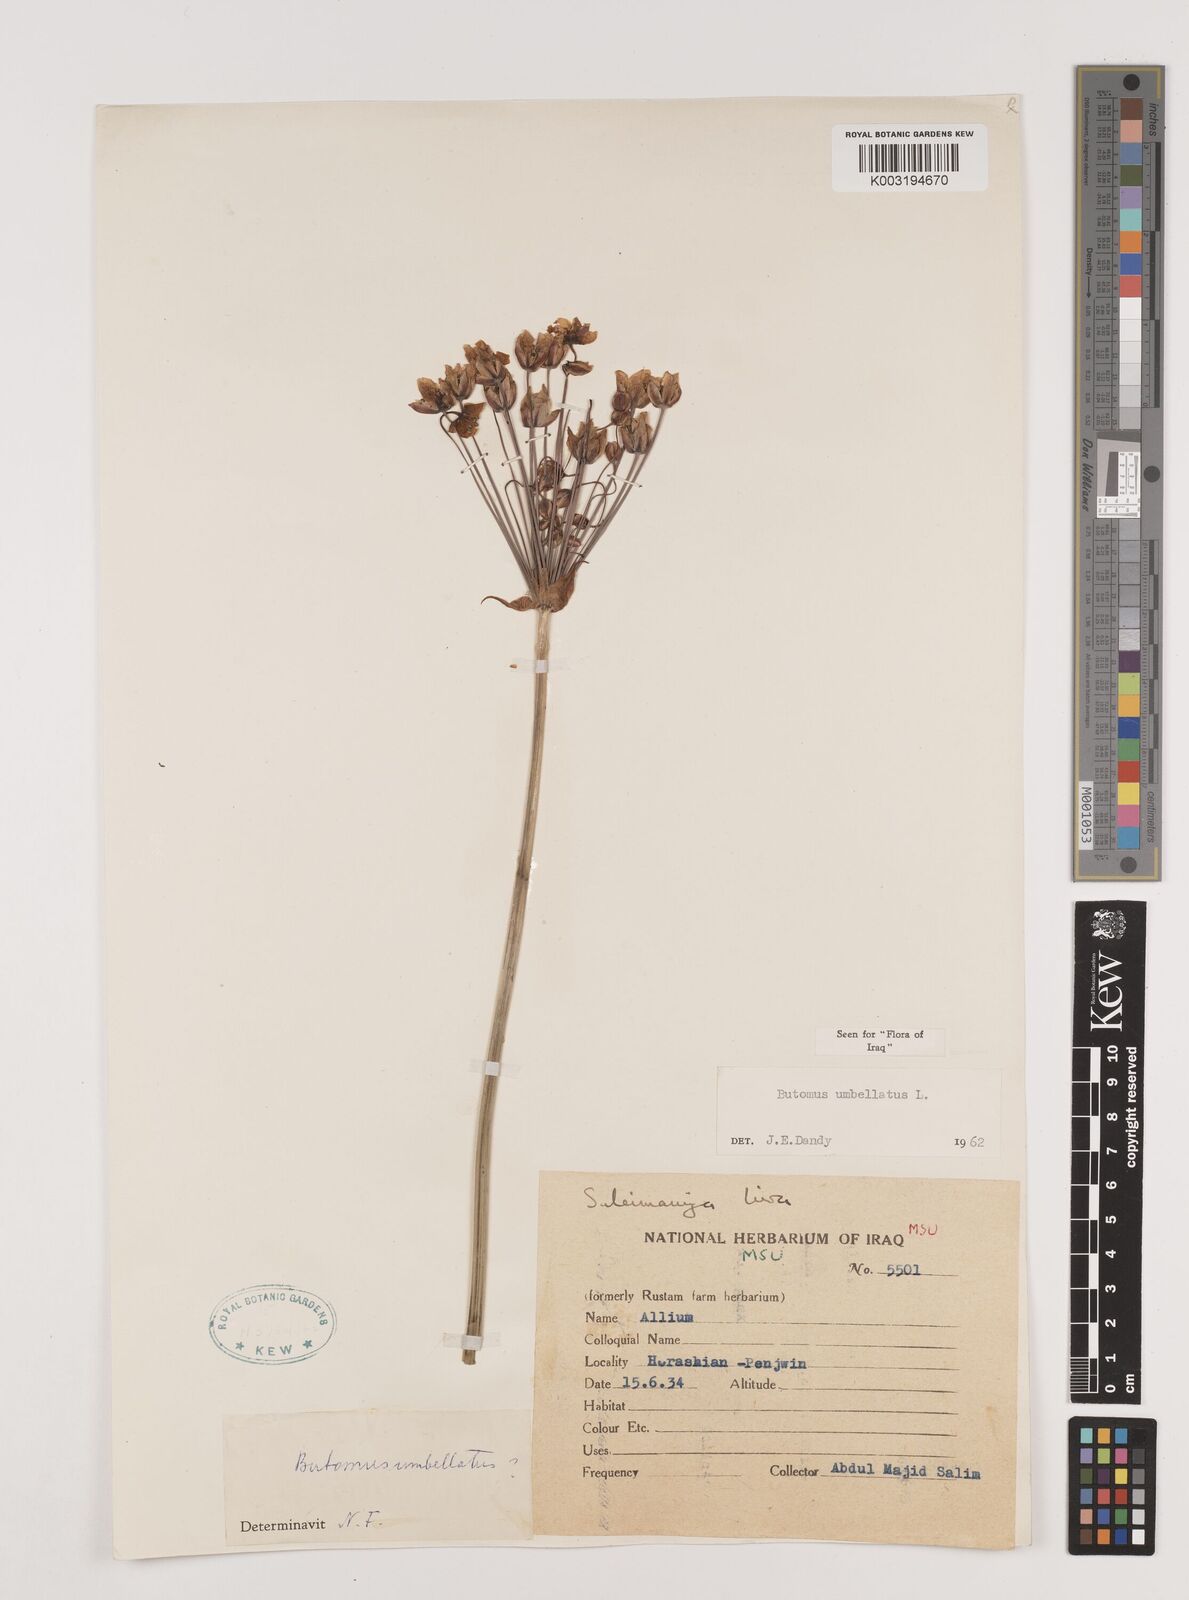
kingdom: Plantae
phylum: Tracheophyta
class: Liliopsida
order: Alismatales
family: Butomaceae
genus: Butomus
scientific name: Butomus
